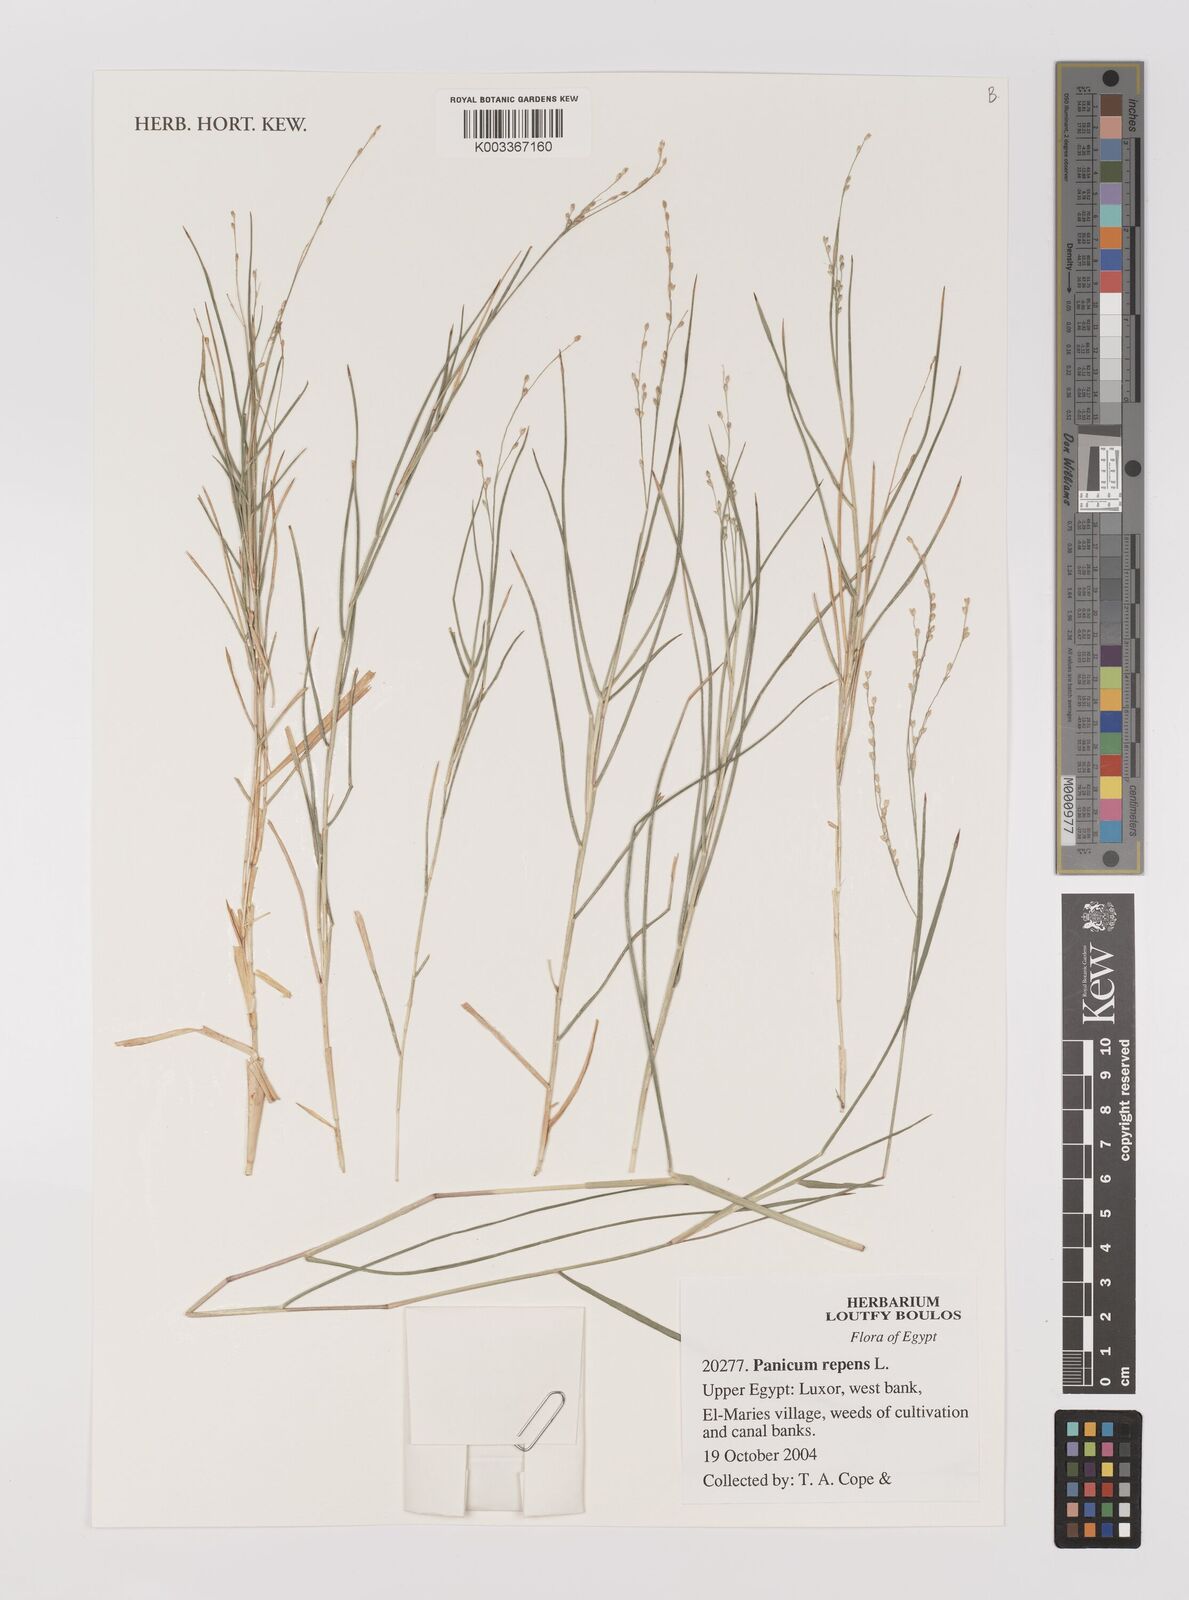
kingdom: Plantae
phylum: Tracheophyta
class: Liliopsida
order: Poales
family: Poaceae
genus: Panicum
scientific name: Panicum repens
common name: Torpedo grass
